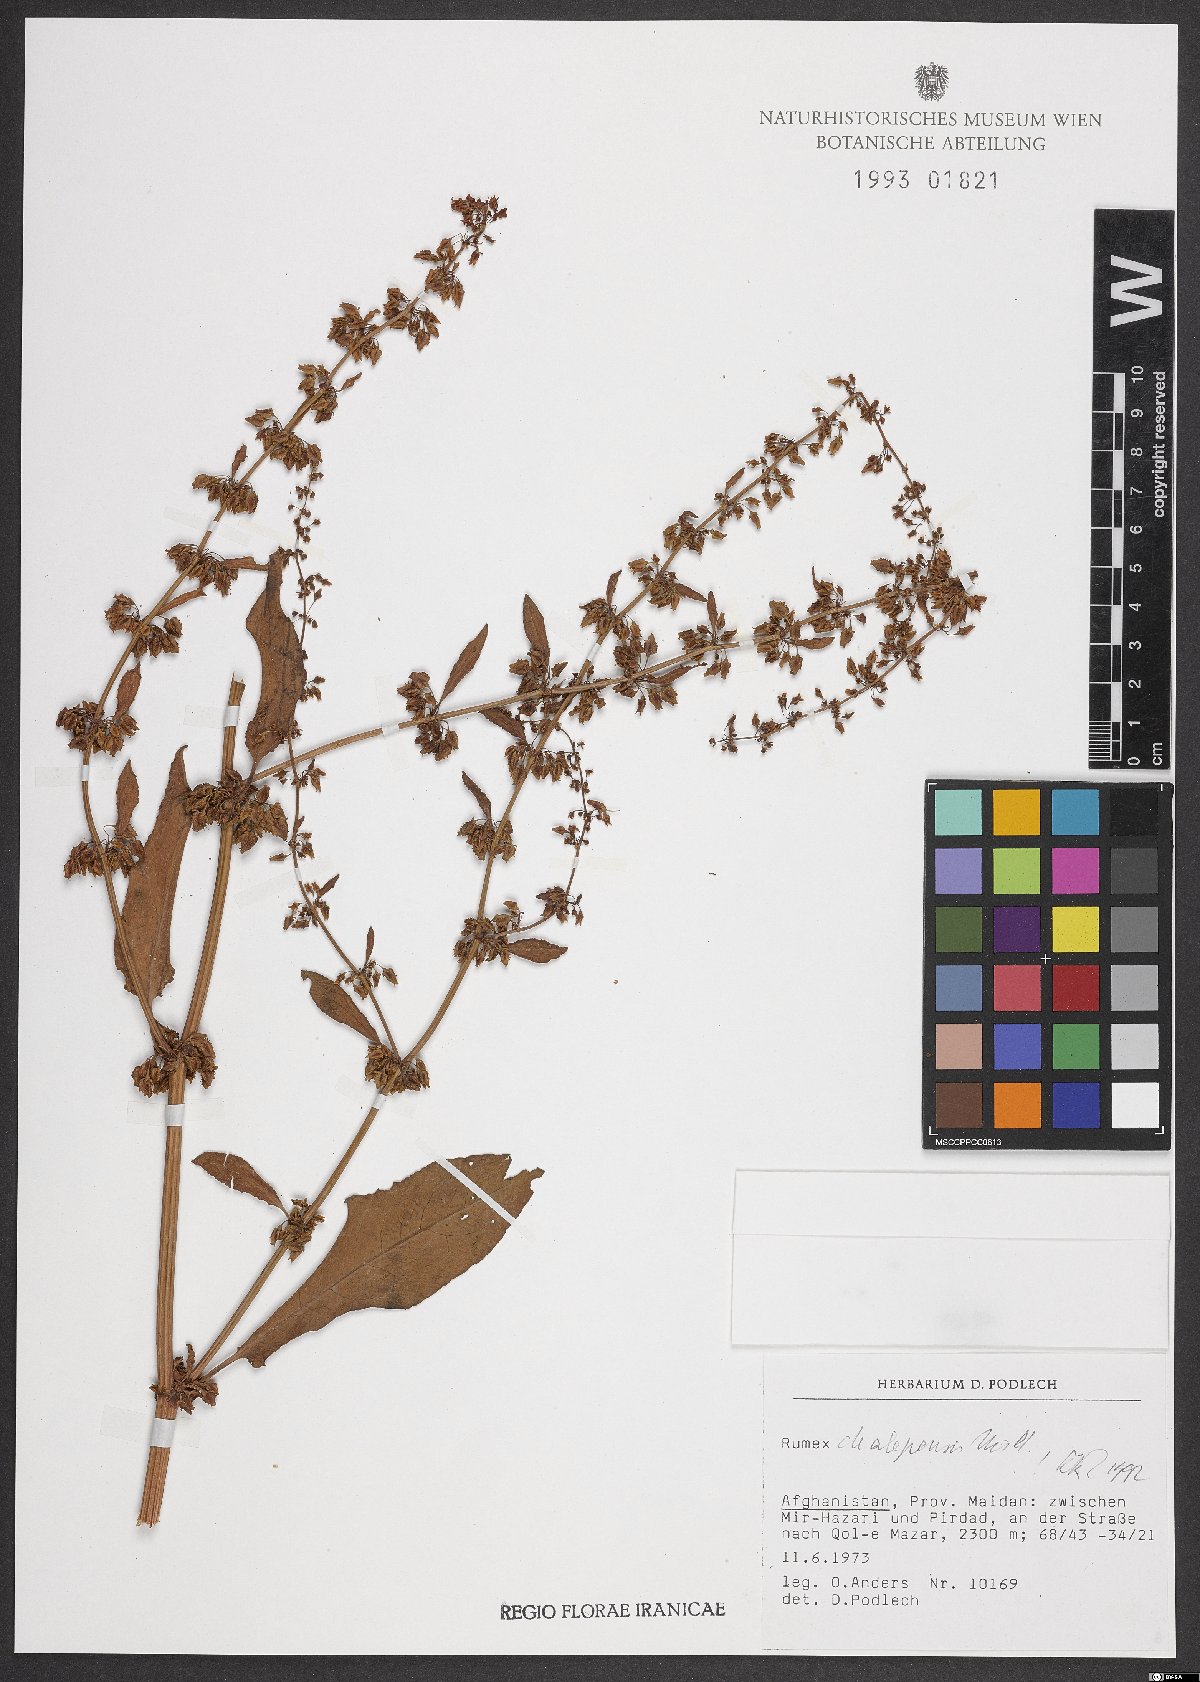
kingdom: Plantae
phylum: Tracheophyta
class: Magnoliopsida
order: Caryophyllales
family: Polygonaceae
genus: Rumex
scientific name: Rumex chalepensis
